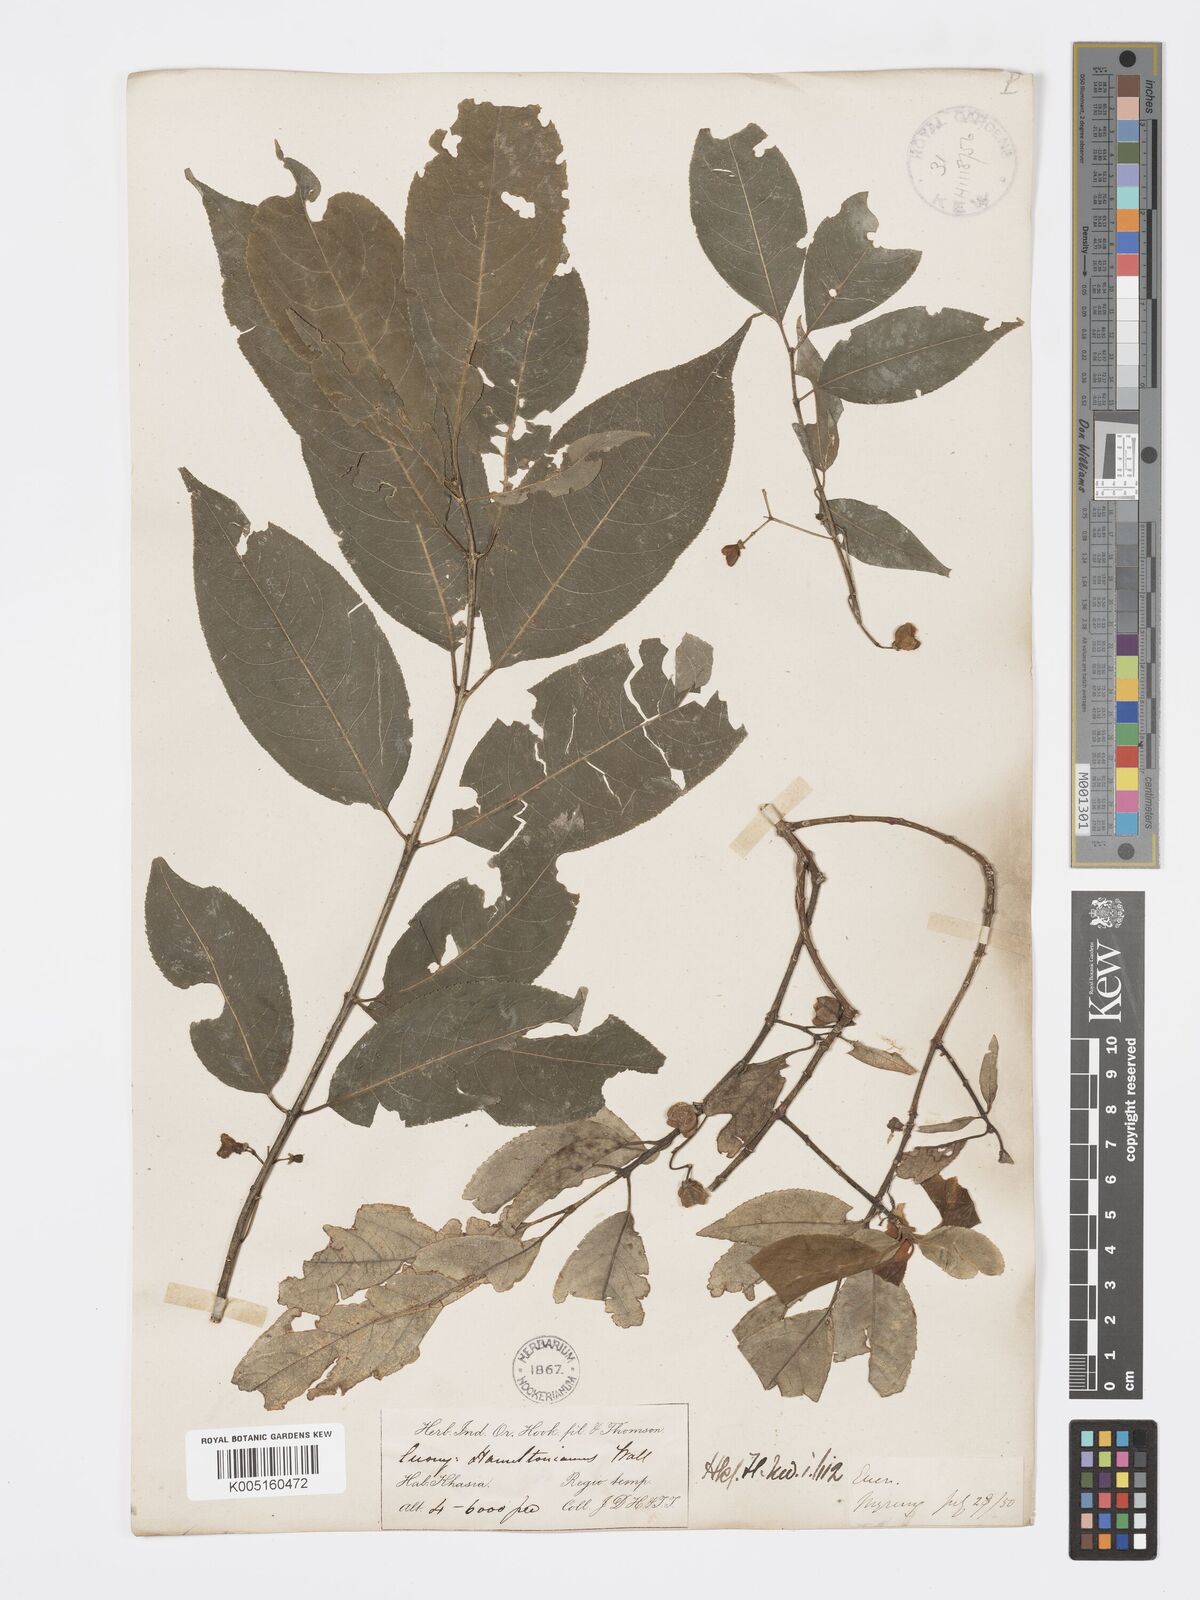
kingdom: Plantae
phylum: Tracheophyta
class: Magnoliopsida
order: Celastrales
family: Celastraceae
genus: Euonymus
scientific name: Euonymus
